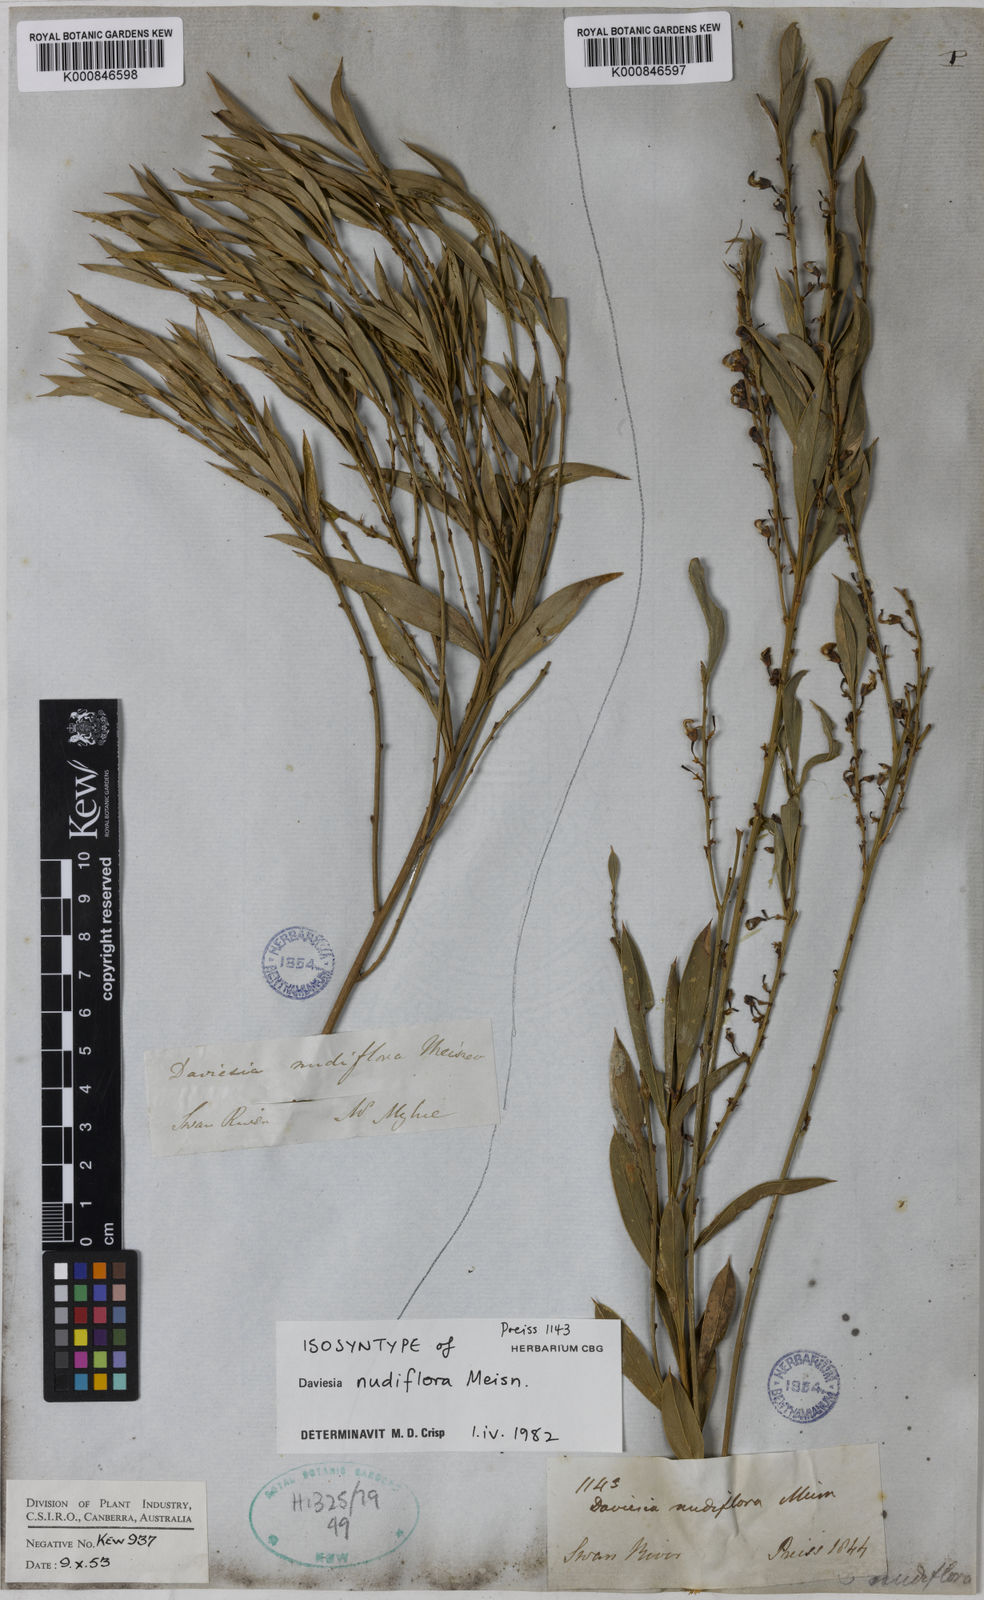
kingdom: Plantae
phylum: Tracheophyta
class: Magnoliopsida
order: Fabales
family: Fabaceae
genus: Daviesia
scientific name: Daviesia nudiflora
